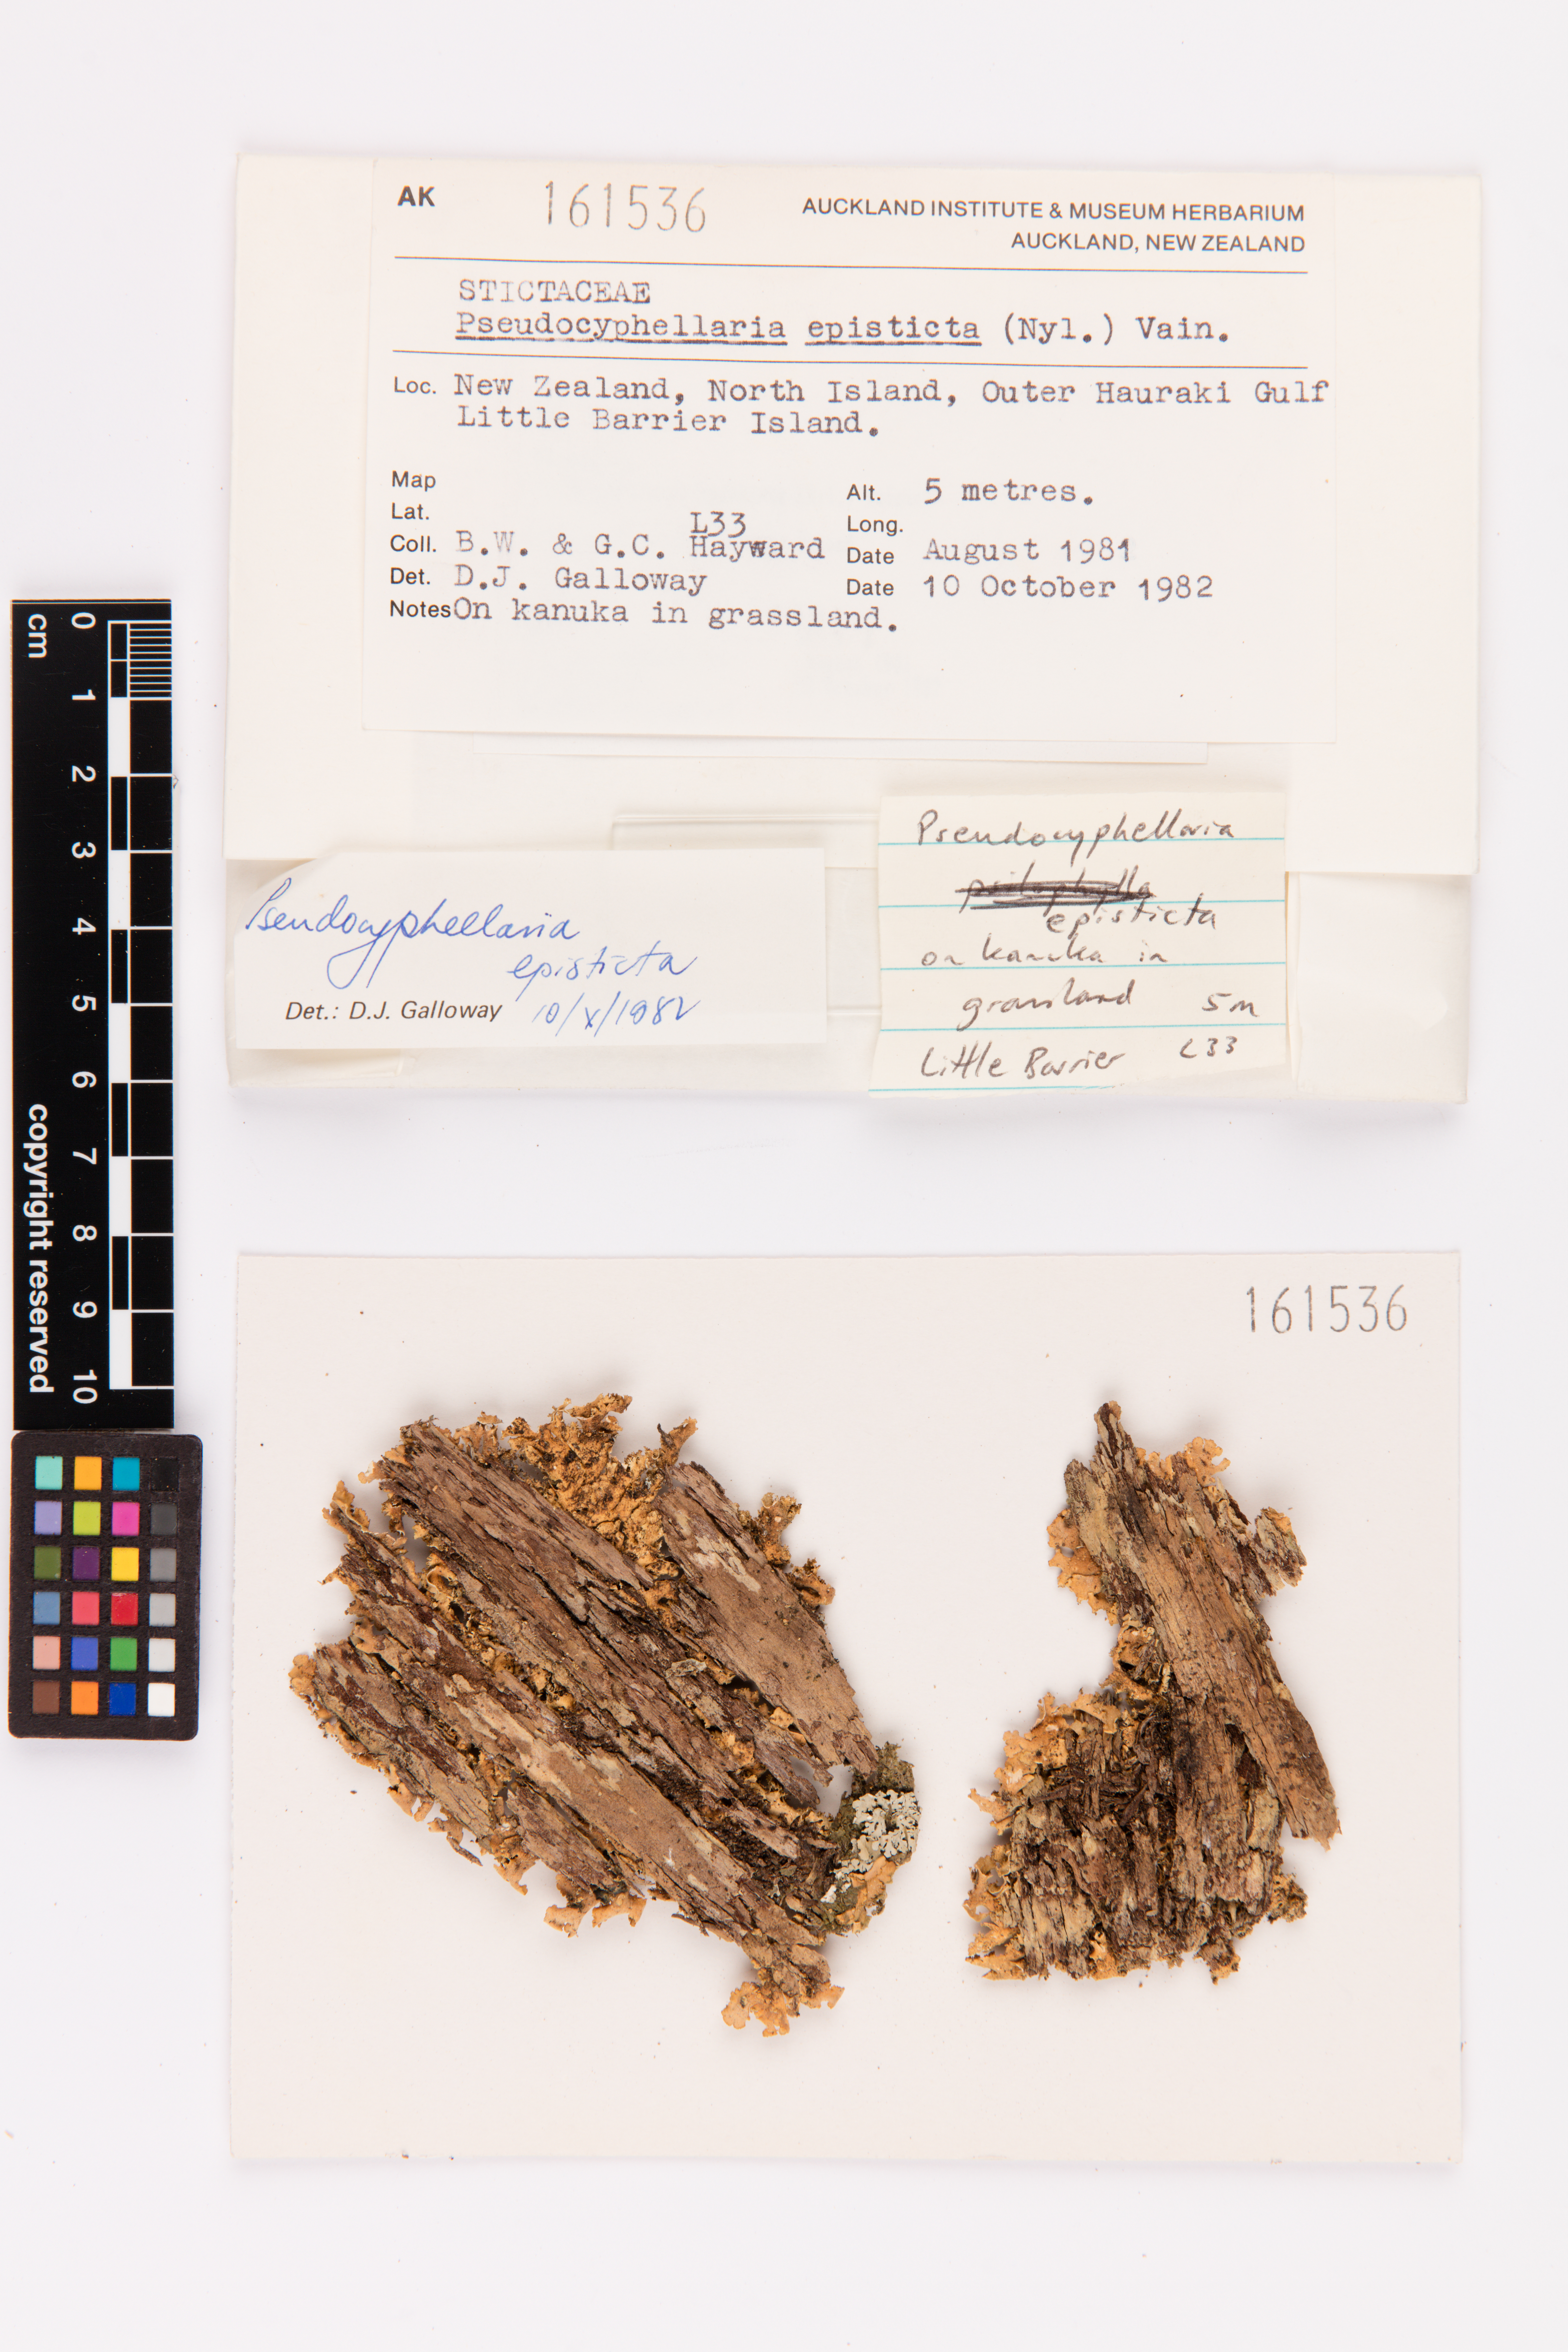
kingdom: Fungi
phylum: Ascomycota
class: Lecanoromycetes
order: Peltigerales
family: Lobariaceae
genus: Pseudocyphellaria
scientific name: Pseudocyphellaria episticta
